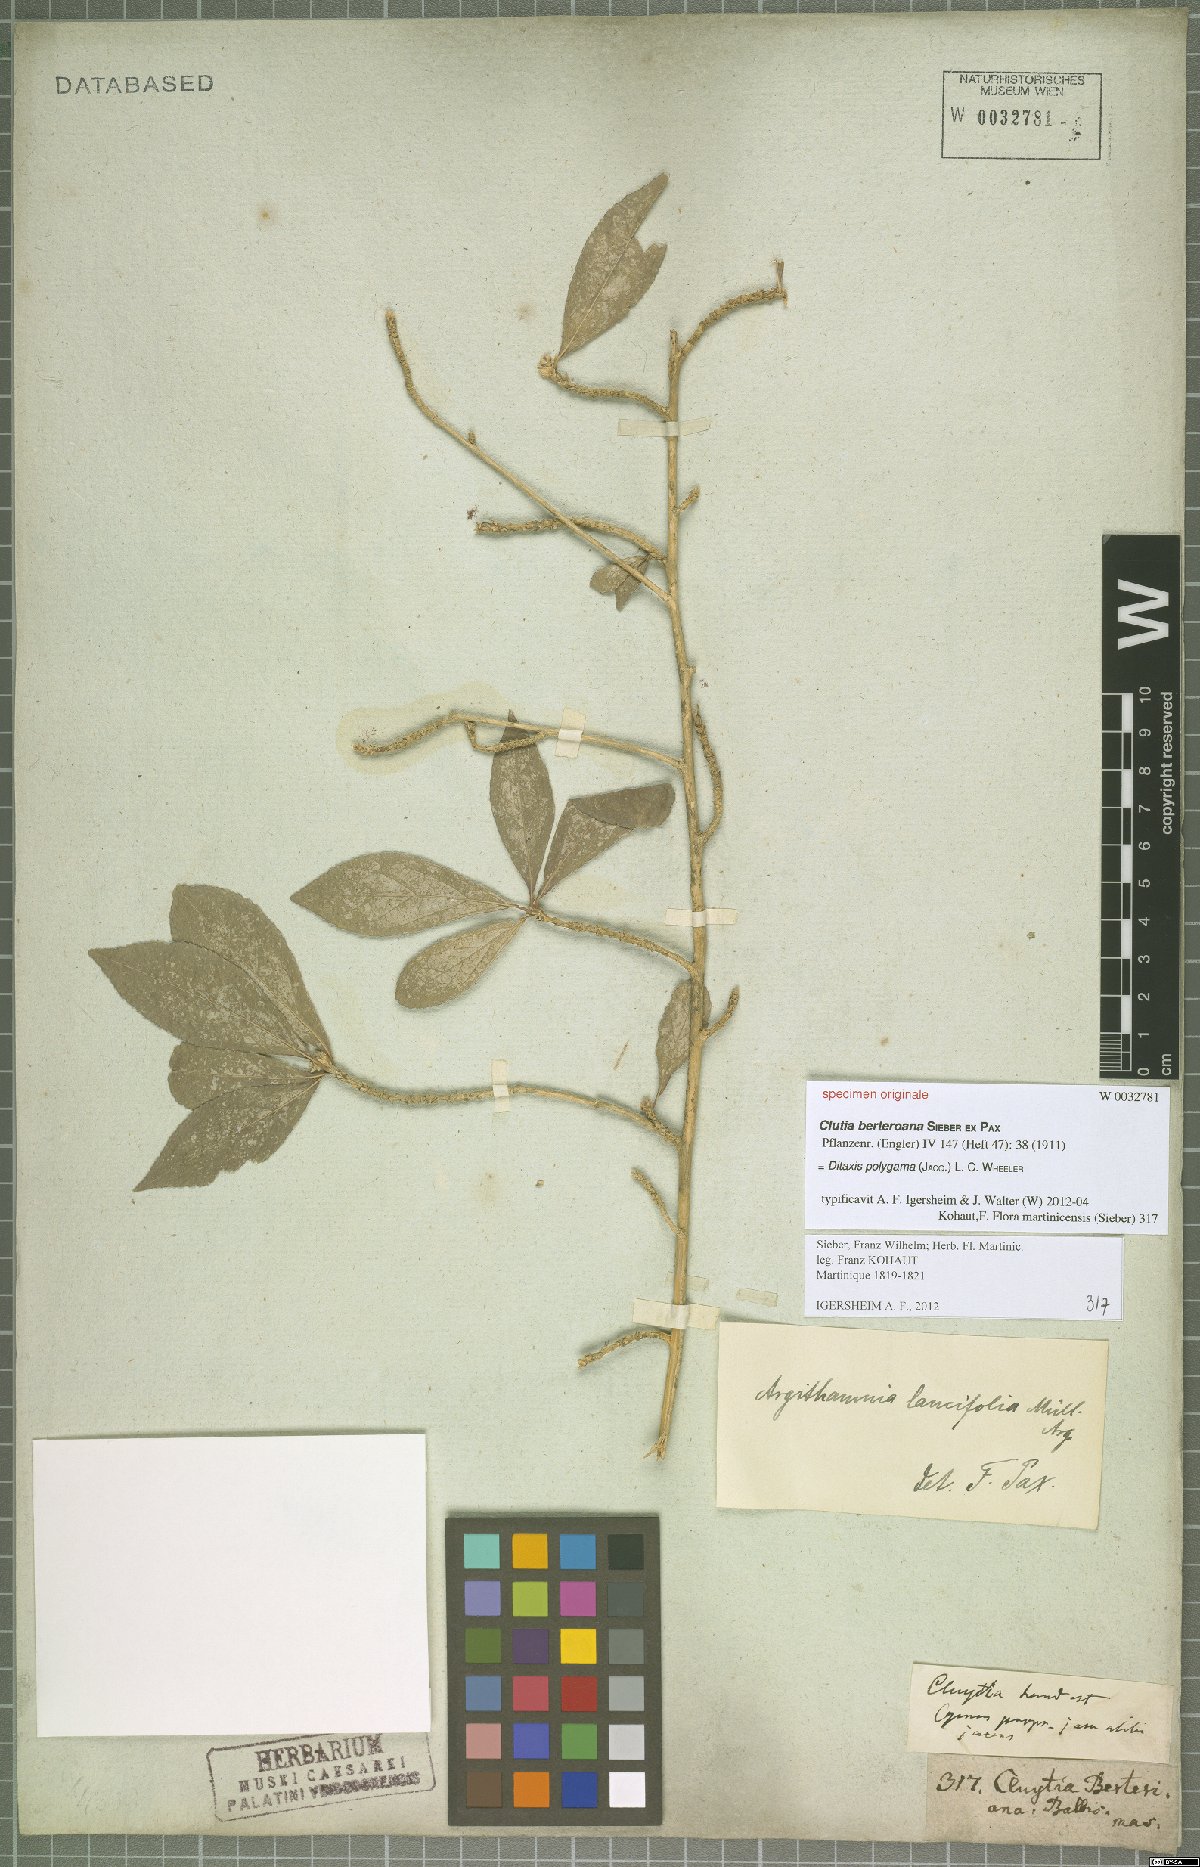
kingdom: Plantae
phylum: Tracheophyta
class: Magnoliopsida
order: Malpighiales
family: Euphorbiaceae
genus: Ditaxis
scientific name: Ditaxis polygama
